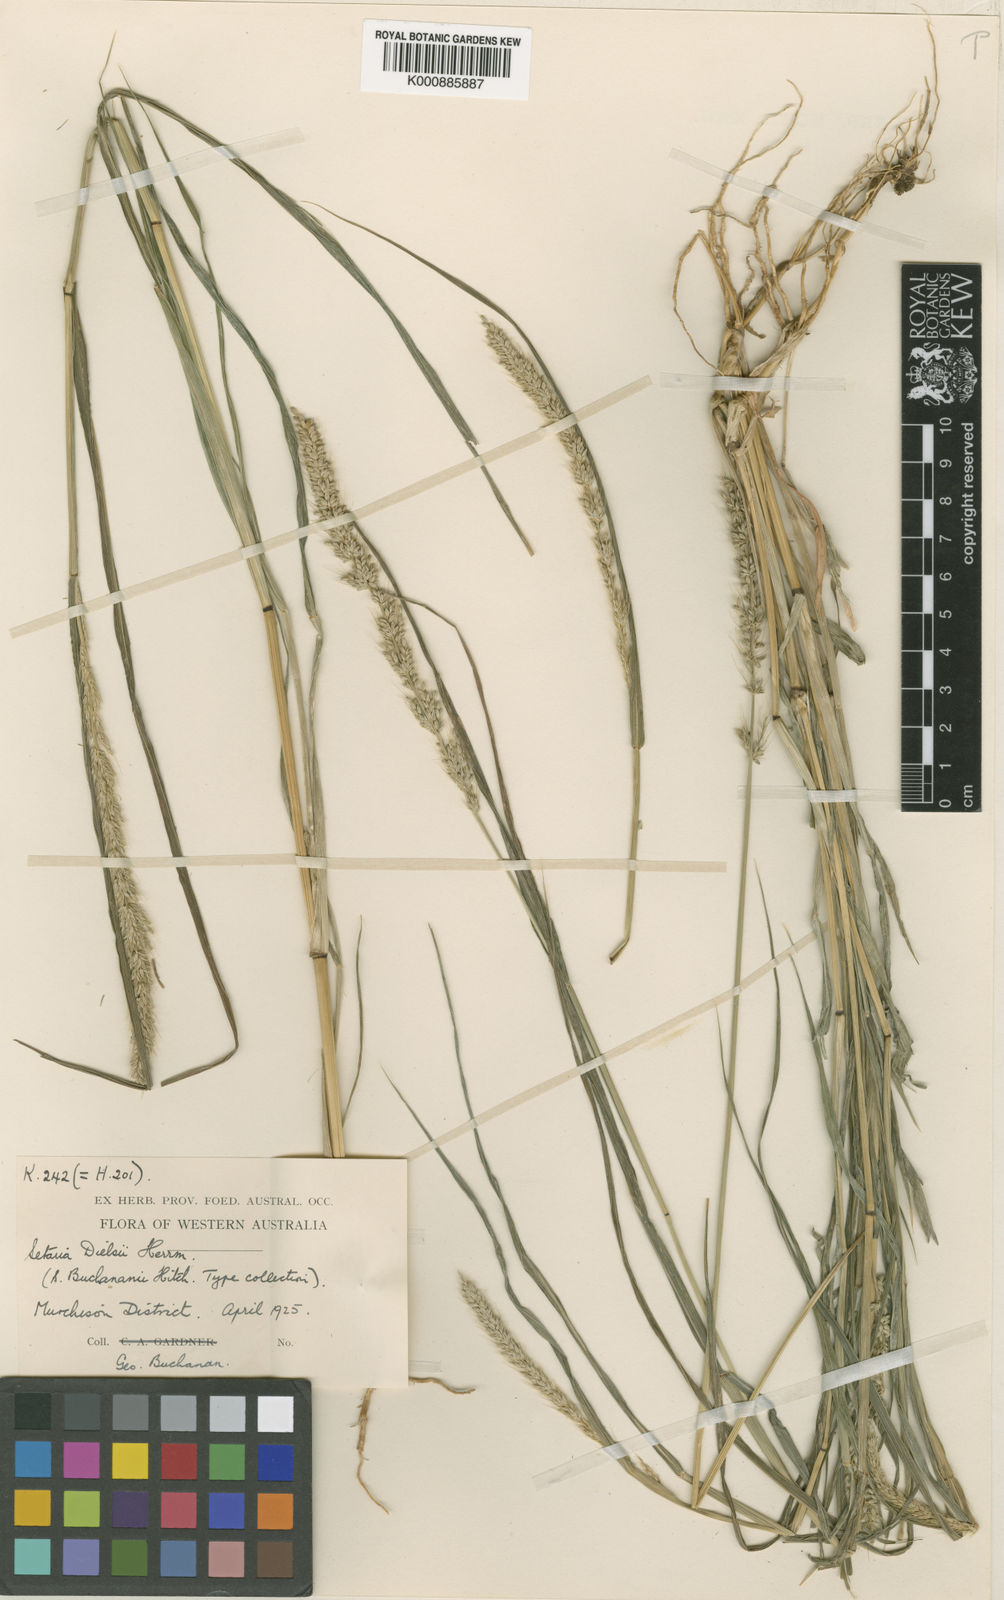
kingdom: Plantae
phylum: Tracheophyta
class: Liliopsida
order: Poales
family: Poaceae
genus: Setaria
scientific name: Setaria dielsii
